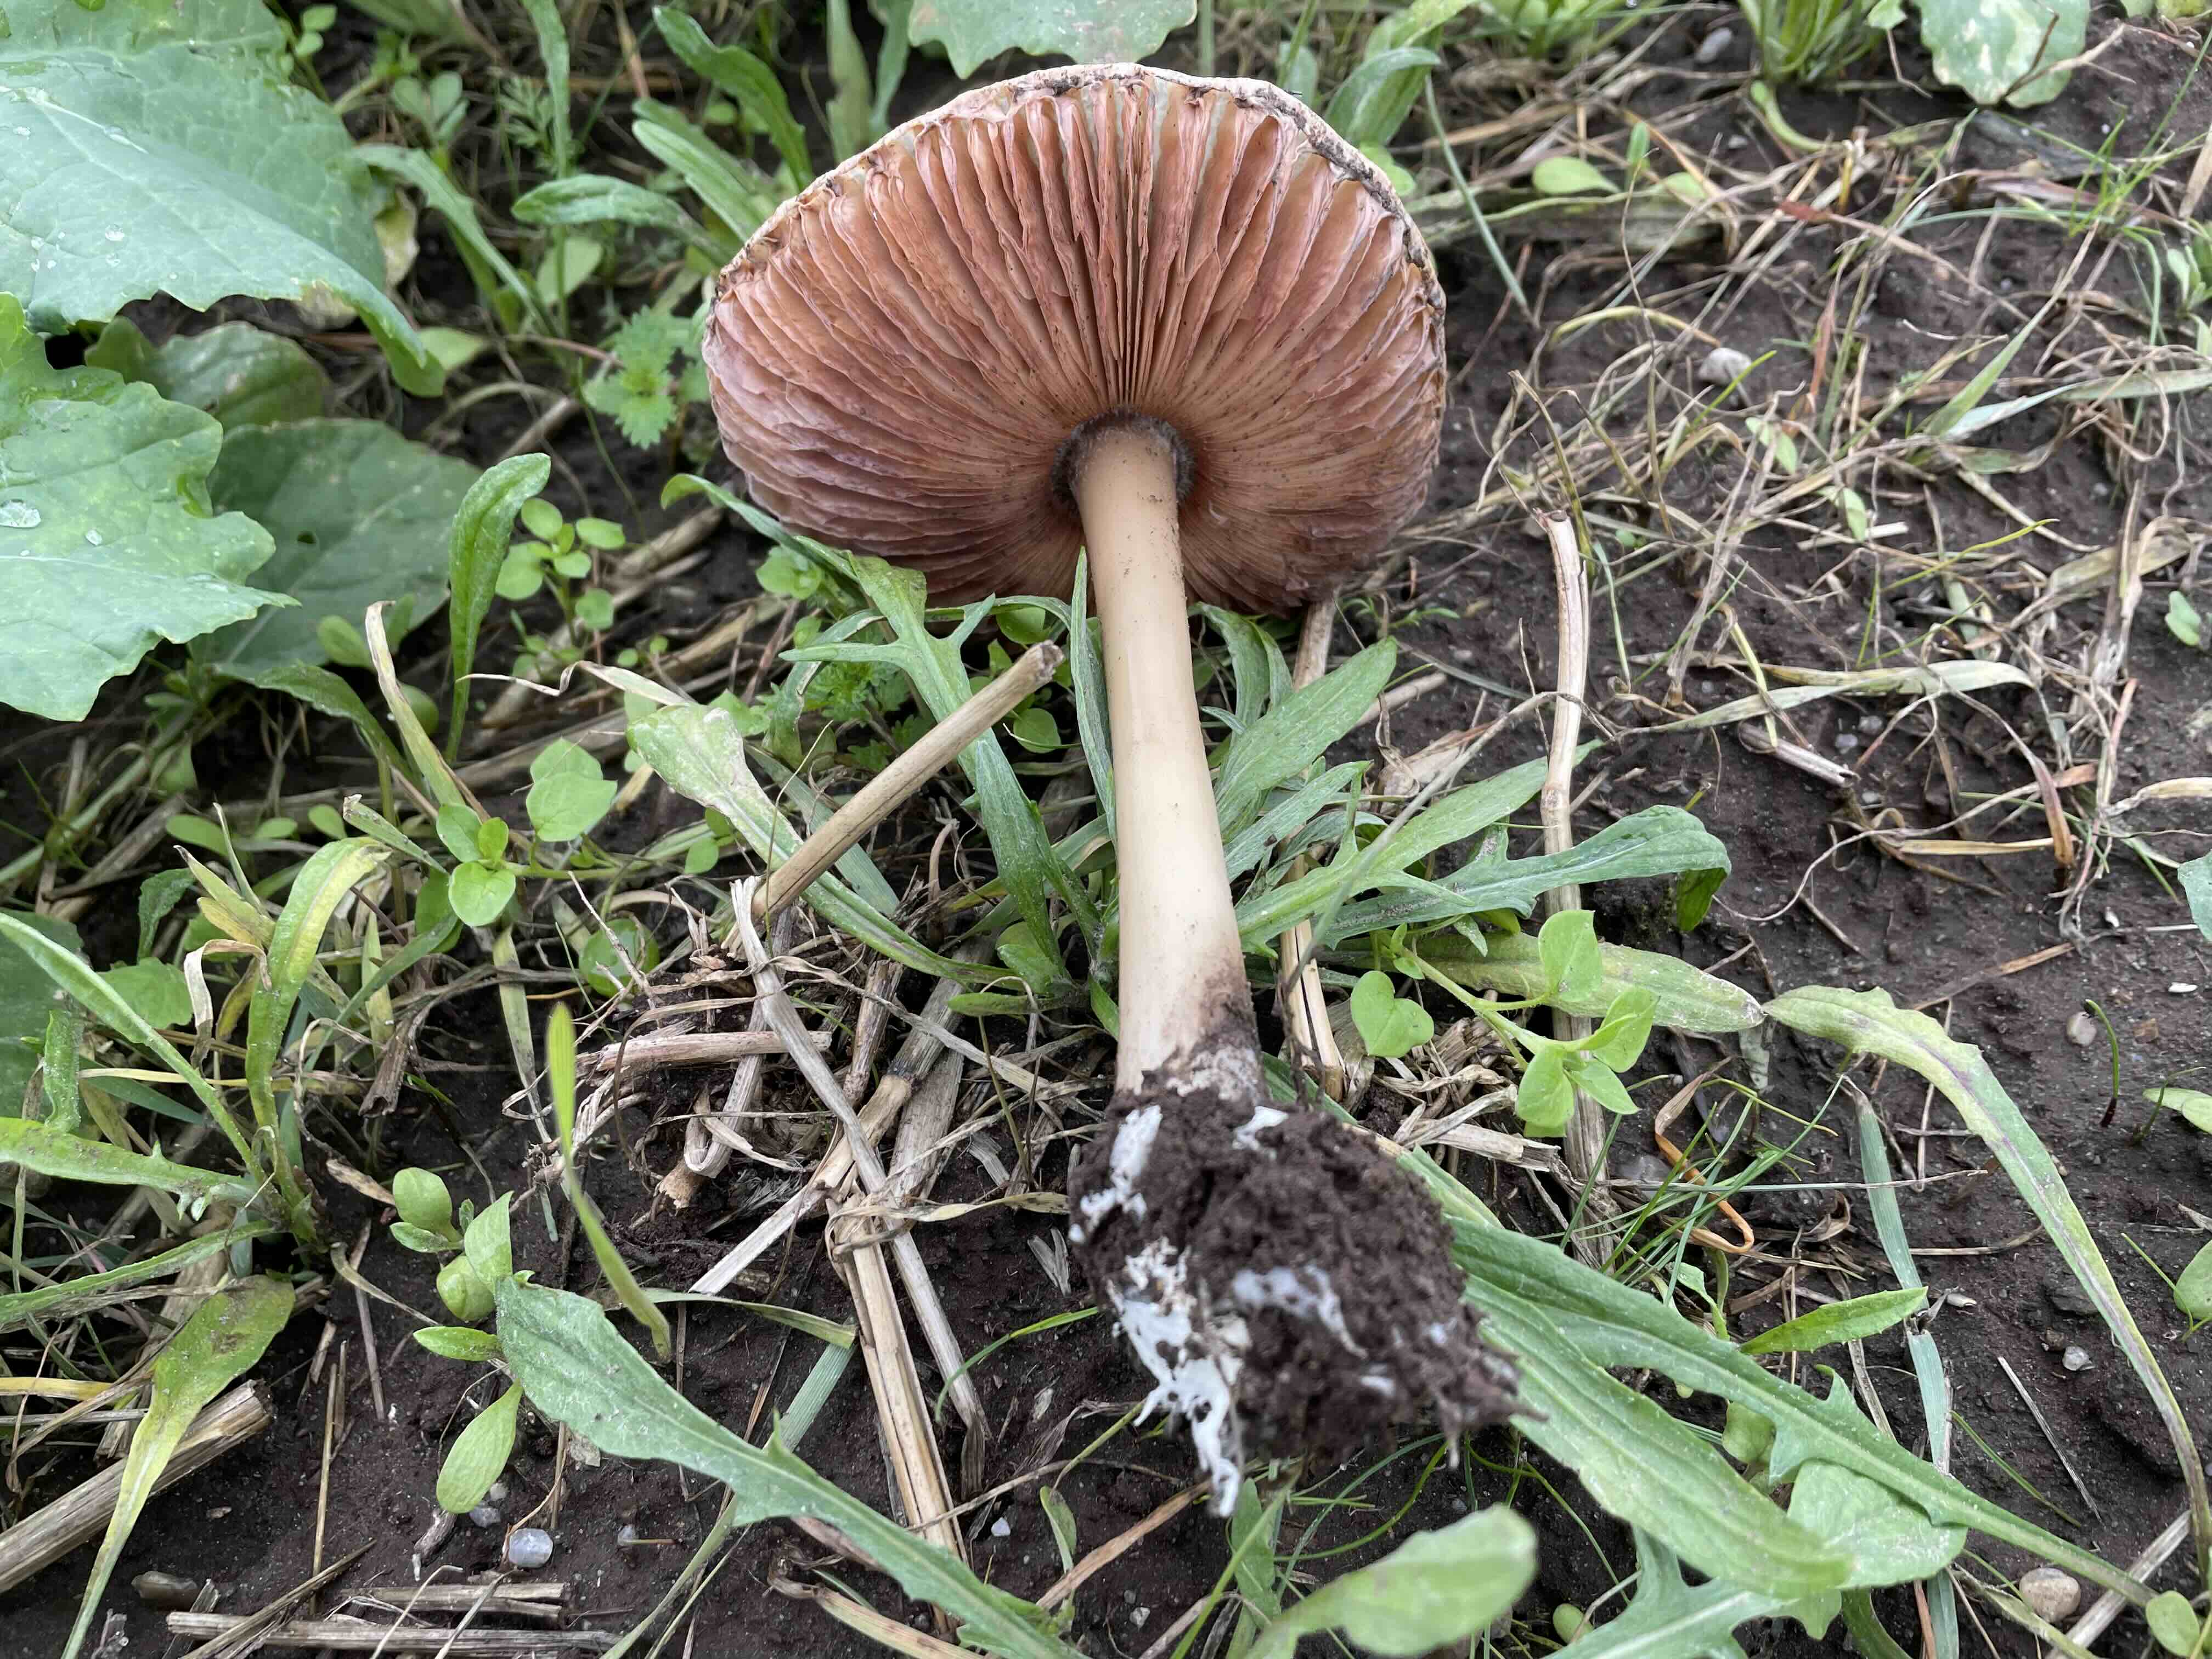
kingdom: Fungi
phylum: Basidiomycota
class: Agaricomycetes
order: Agaricales
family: Pluteaceae
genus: Volvopluteus
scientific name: Volvopluteus gloiocephalus
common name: høj posesvamp
